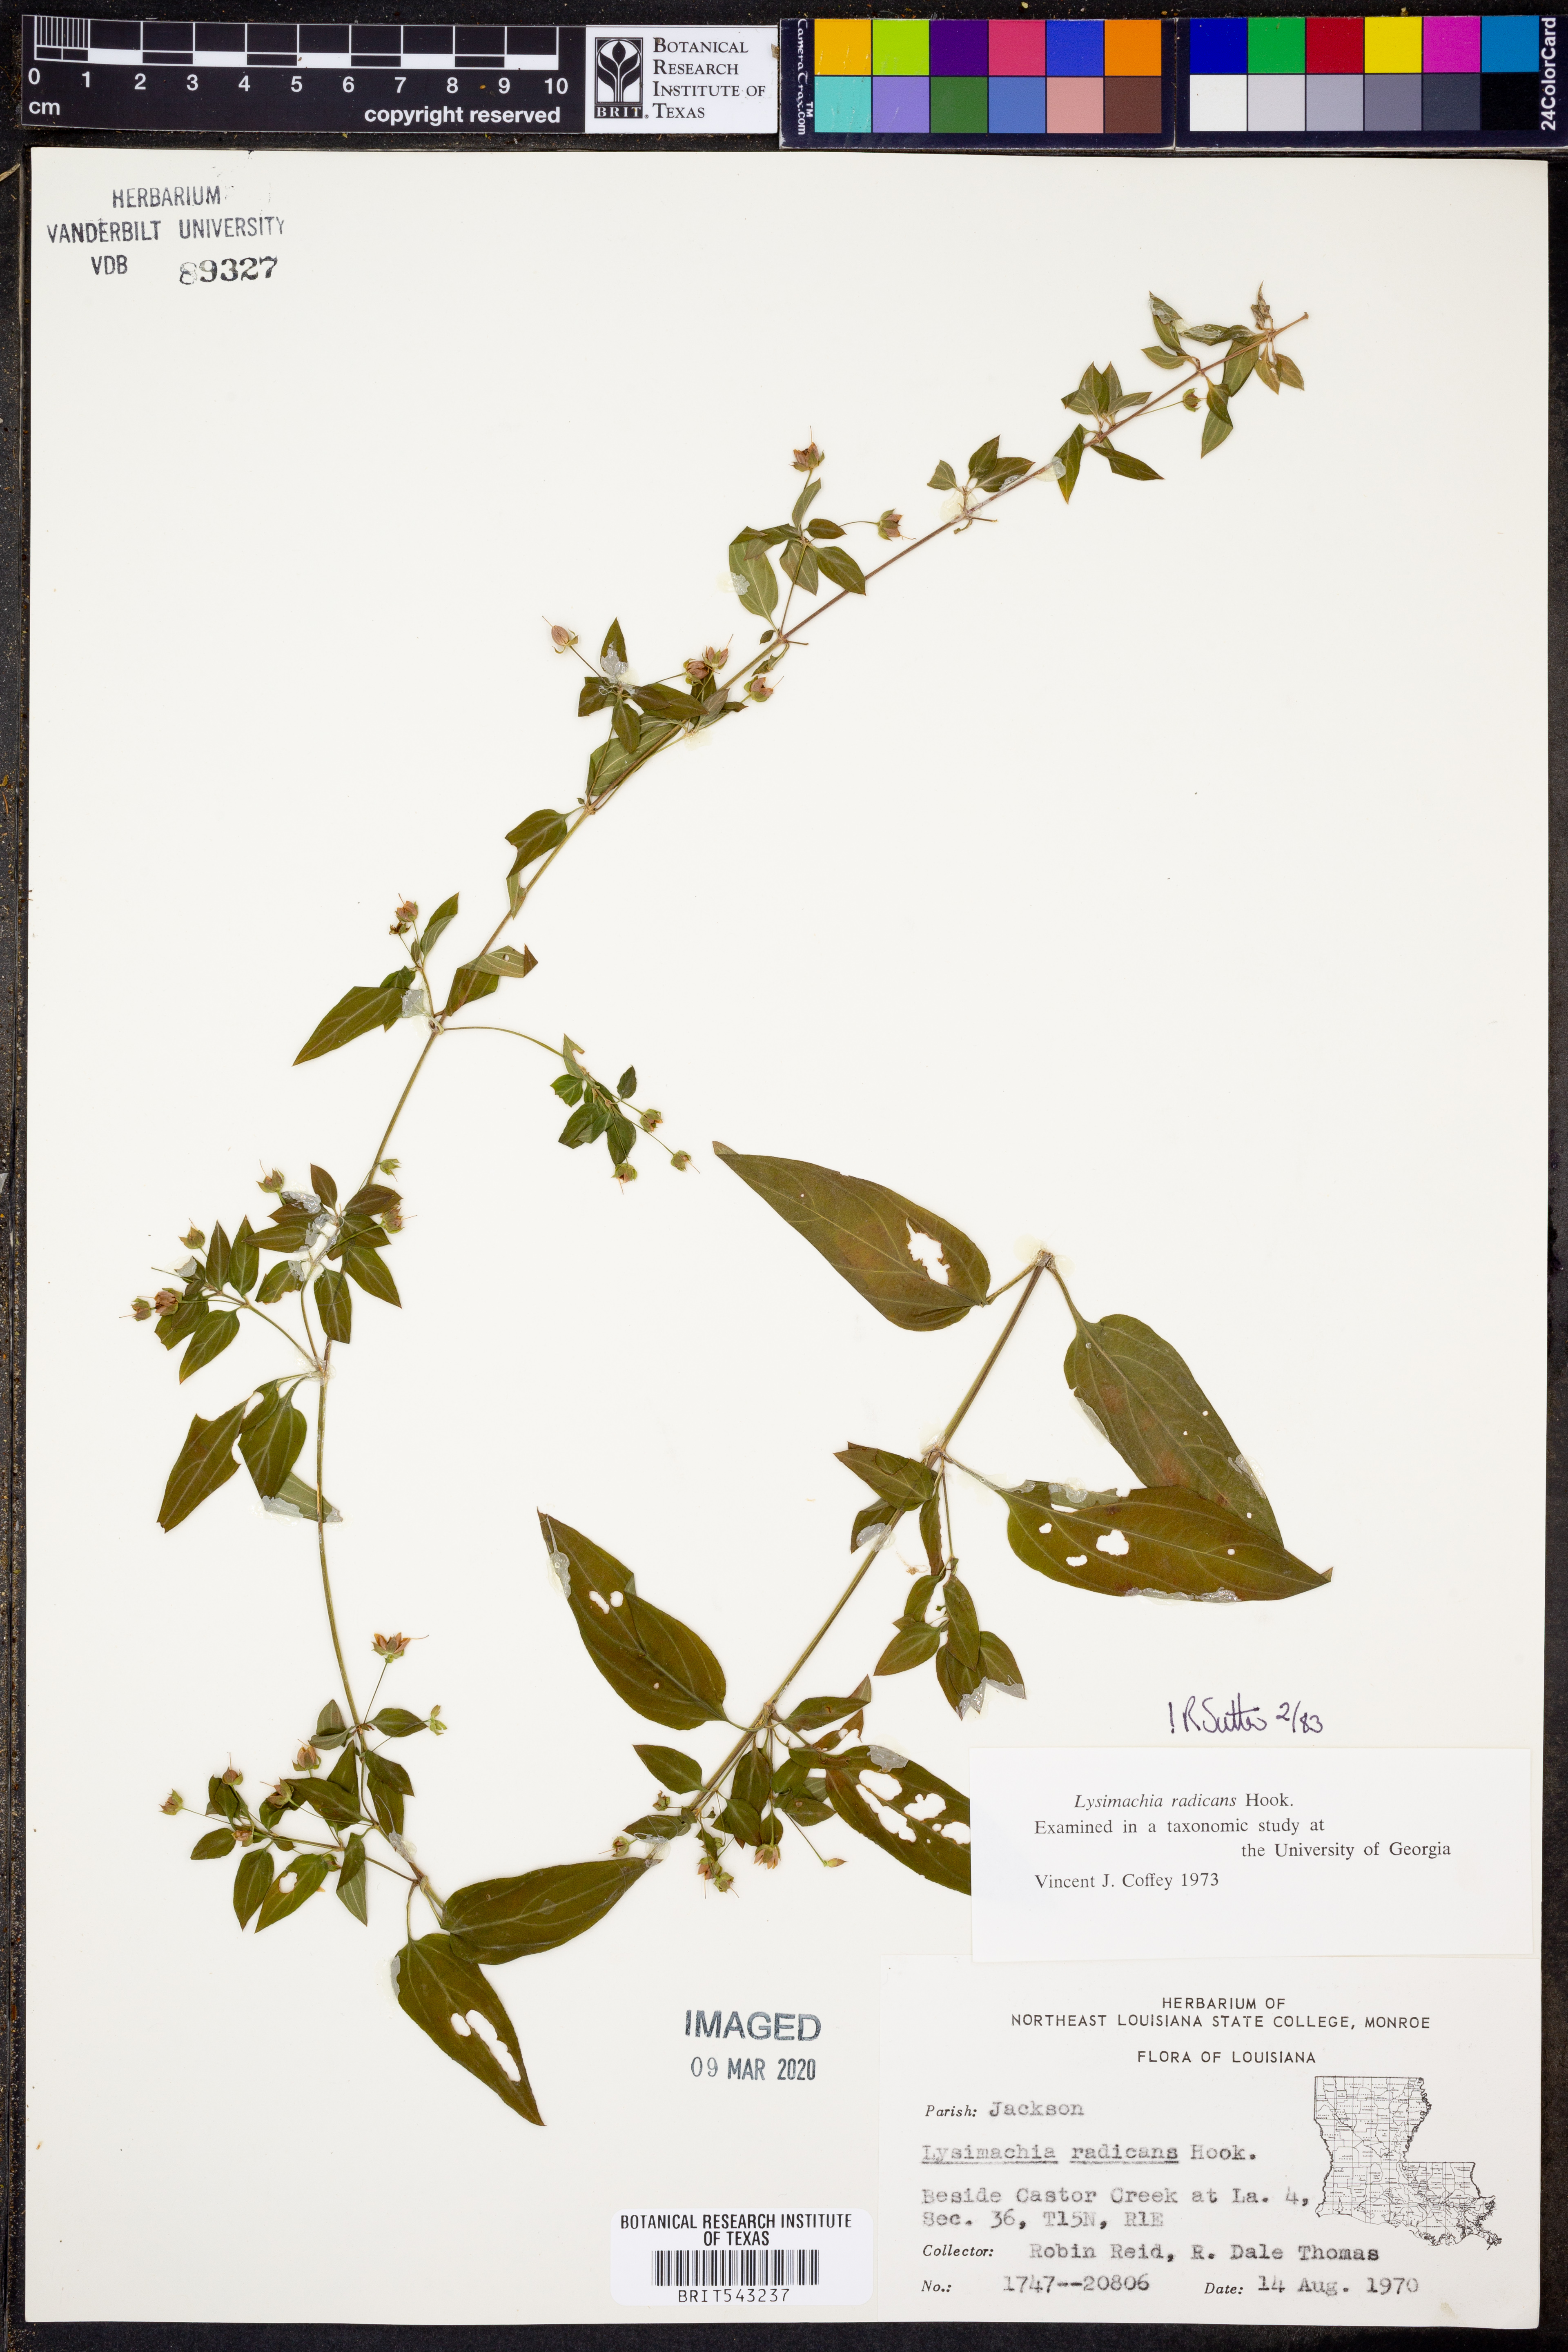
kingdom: Plantae
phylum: Tracheophyta
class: Magnoliopsida
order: Ericales
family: Primulaceae
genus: Lysimachia
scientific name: Lysimachia radicans
